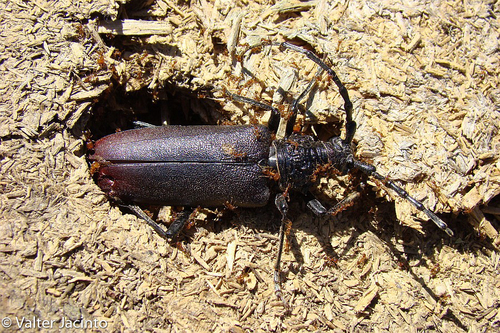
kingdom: Animalia
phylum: Arthropoda
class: Insecta
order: Coleoptera
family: Cerambycidae
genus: Cerambyx
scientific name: Cerambyx cerdo
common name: Cerambyx longicorn
